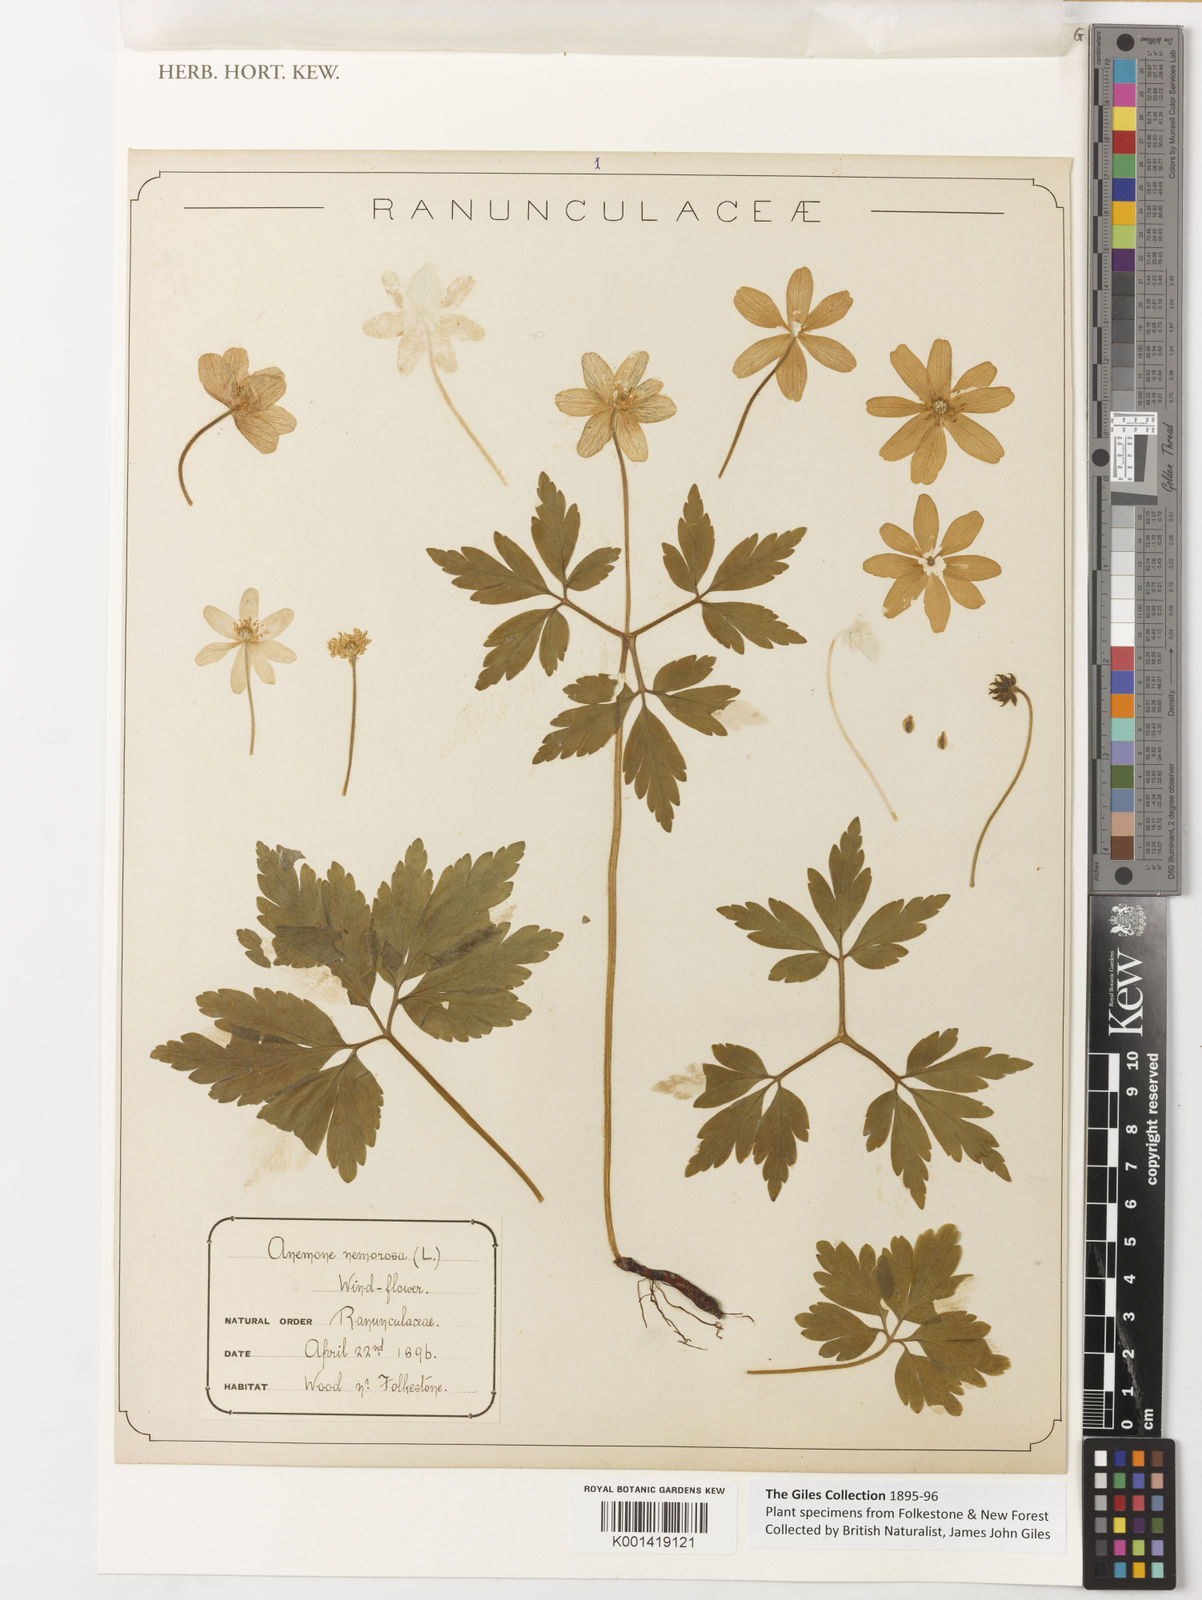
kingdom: Plantae
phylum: Tracheophyta
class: Magnoliopsida
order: Ranunculales
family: Ranunculaceae
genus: Anemone
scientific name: Anemone nemorosa
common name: Wood anemone
